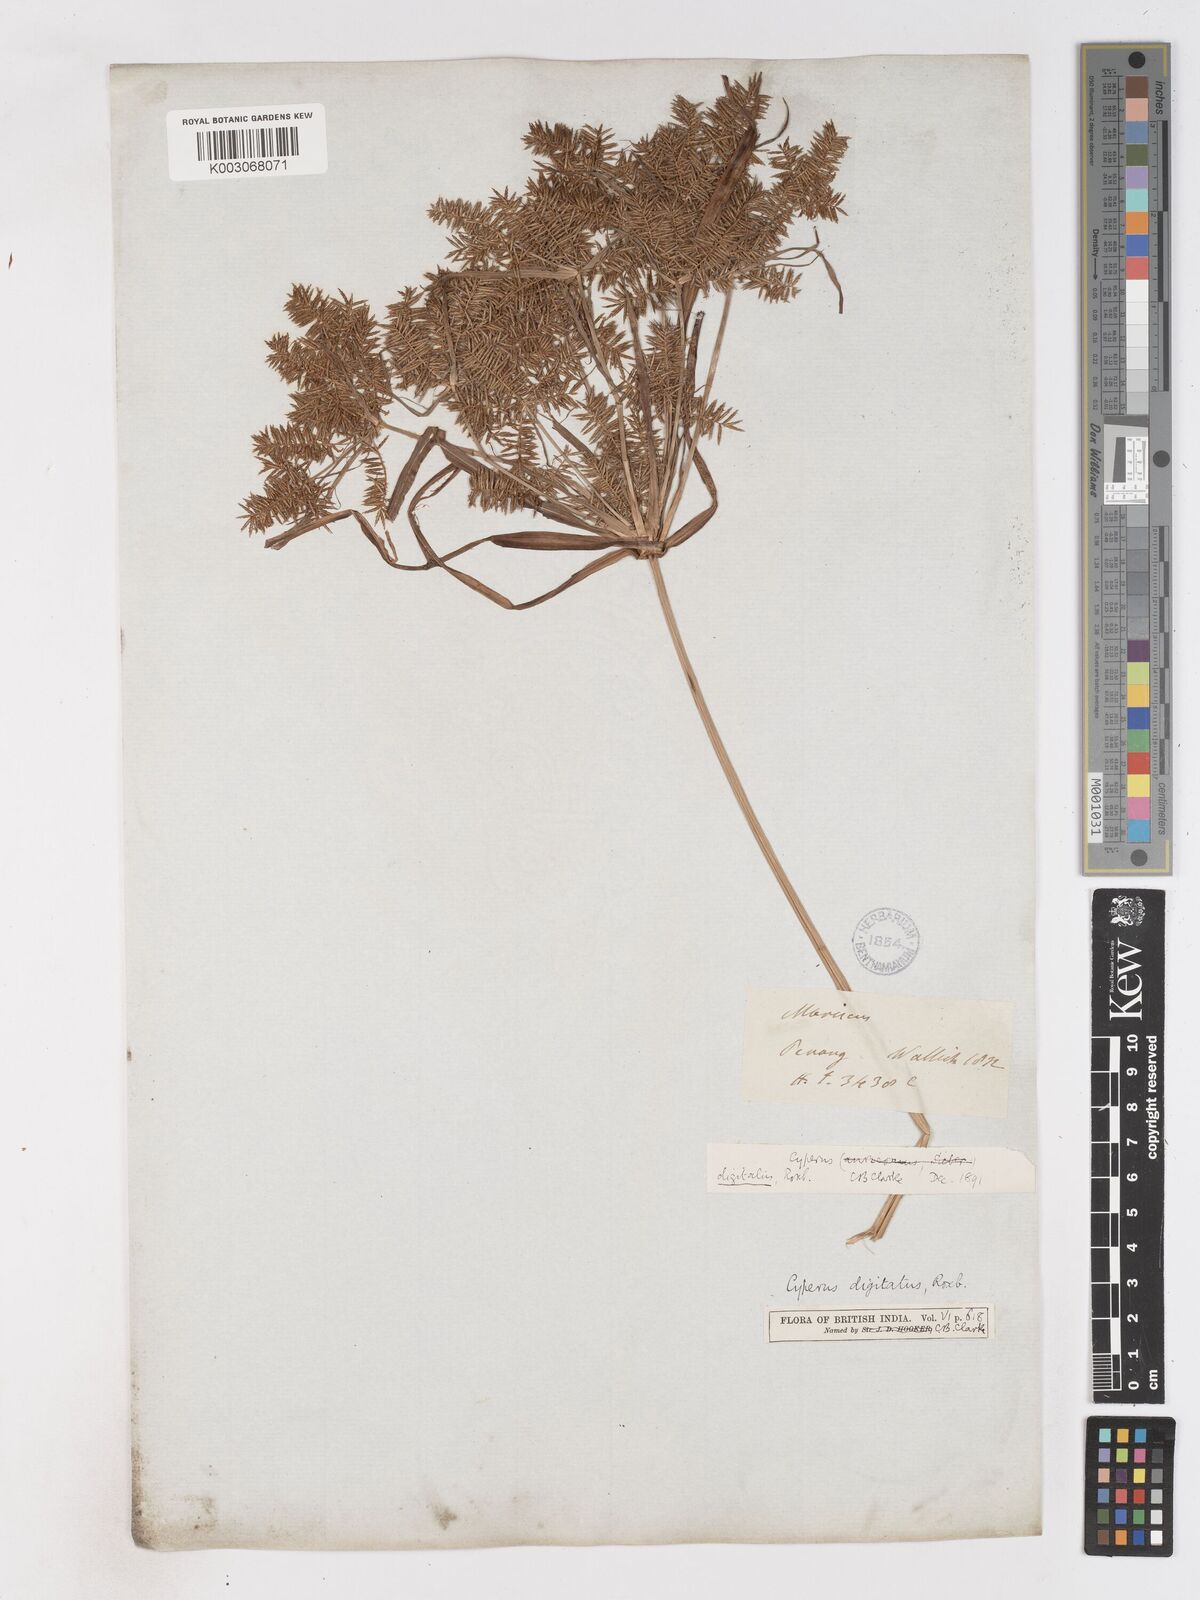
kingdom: Plantae
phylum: Tracheophyta
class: Liliopsida
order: Poales
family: Cyperaceae
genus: Cyperus
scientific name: Cyperus digitatus
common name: Finger flatsedge
